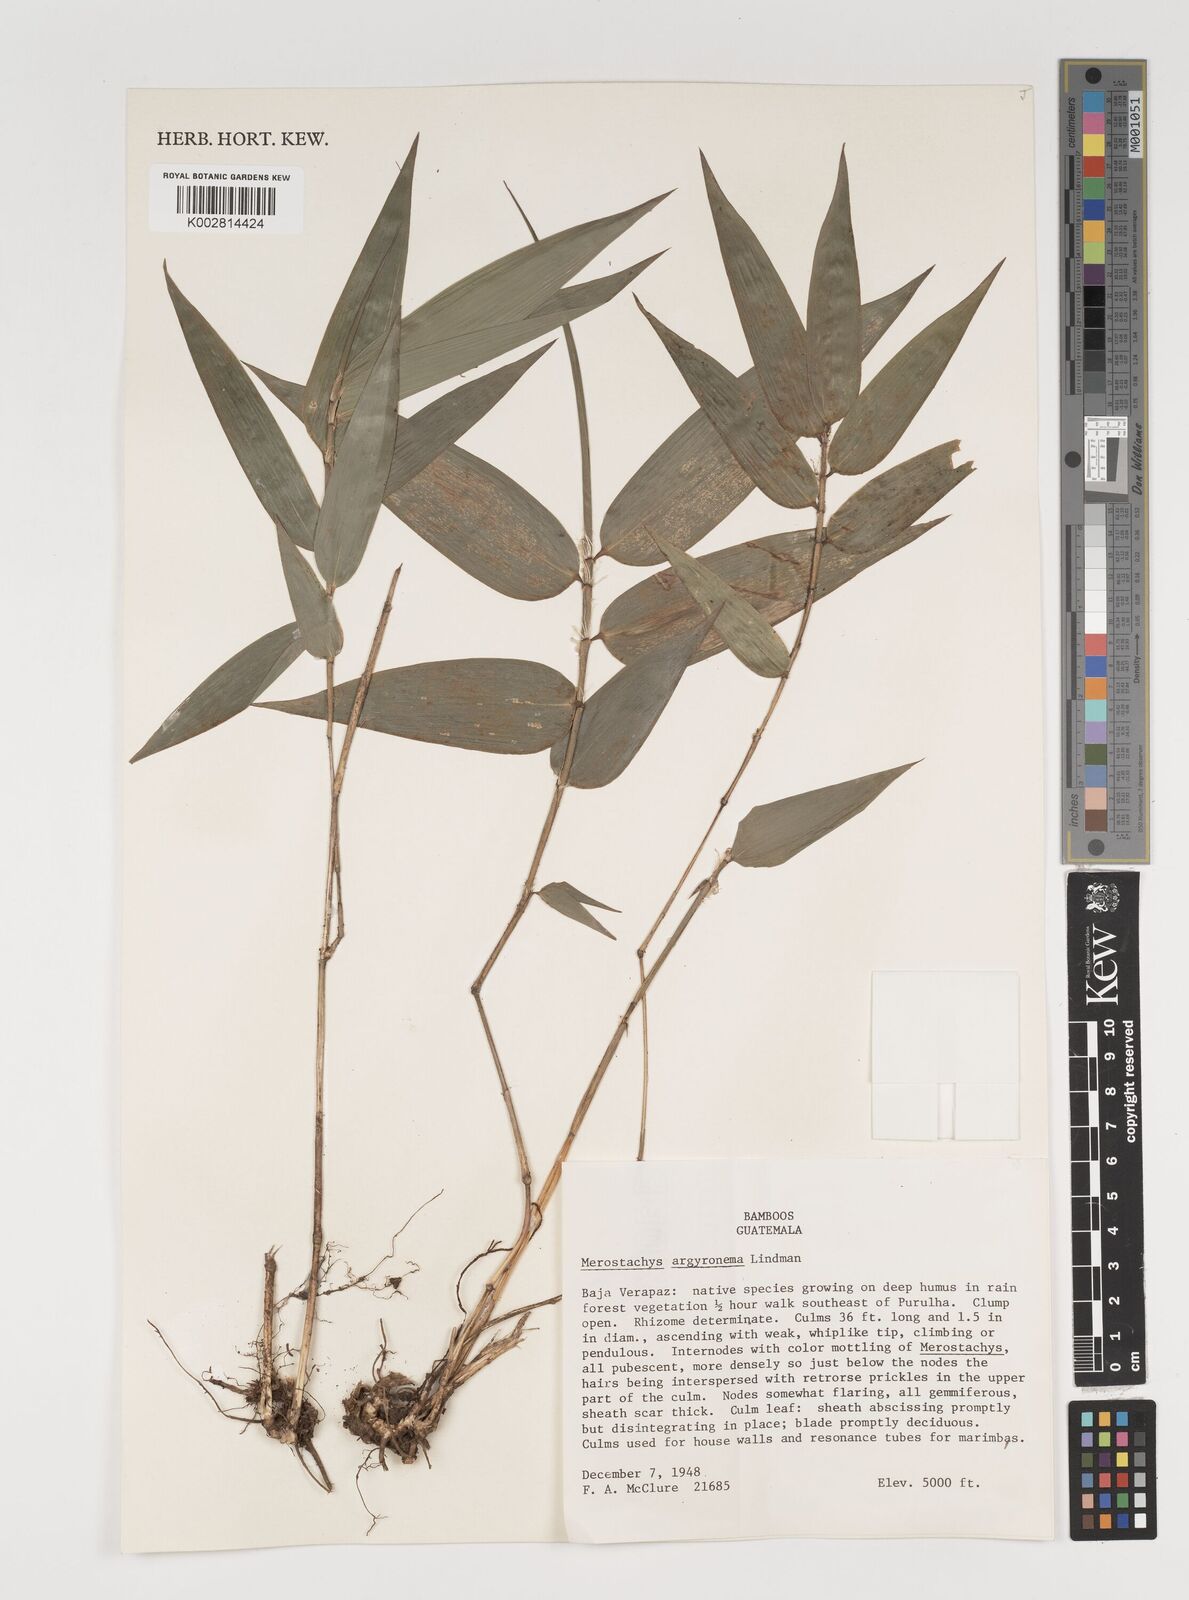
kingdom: Plantae
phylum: Tracheophyta
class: Liliopsida
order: Poales
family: Poaceae
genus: Merostachys
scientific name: Merostachys argyronema
